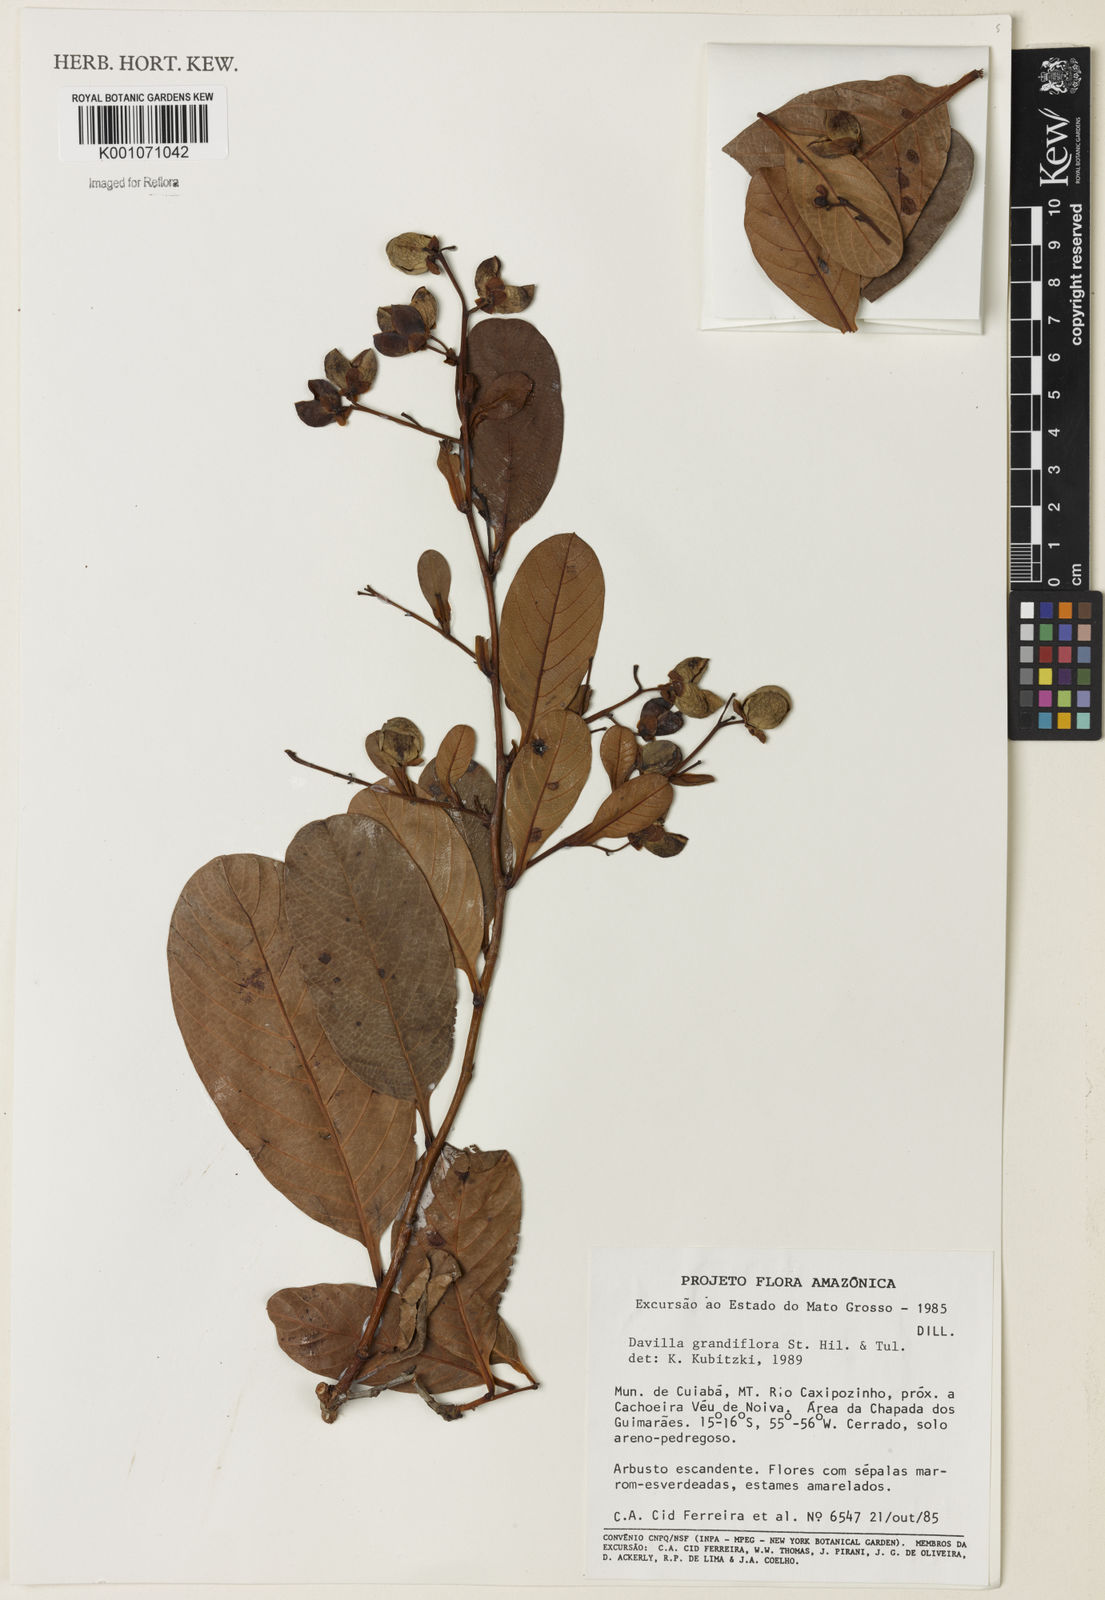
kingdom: Plantae
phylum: Tracheophyta
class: Magnoliopsida
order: Dilleniales
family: Dilleniaceae
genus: Davilla
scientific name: Davilla grandiflora
